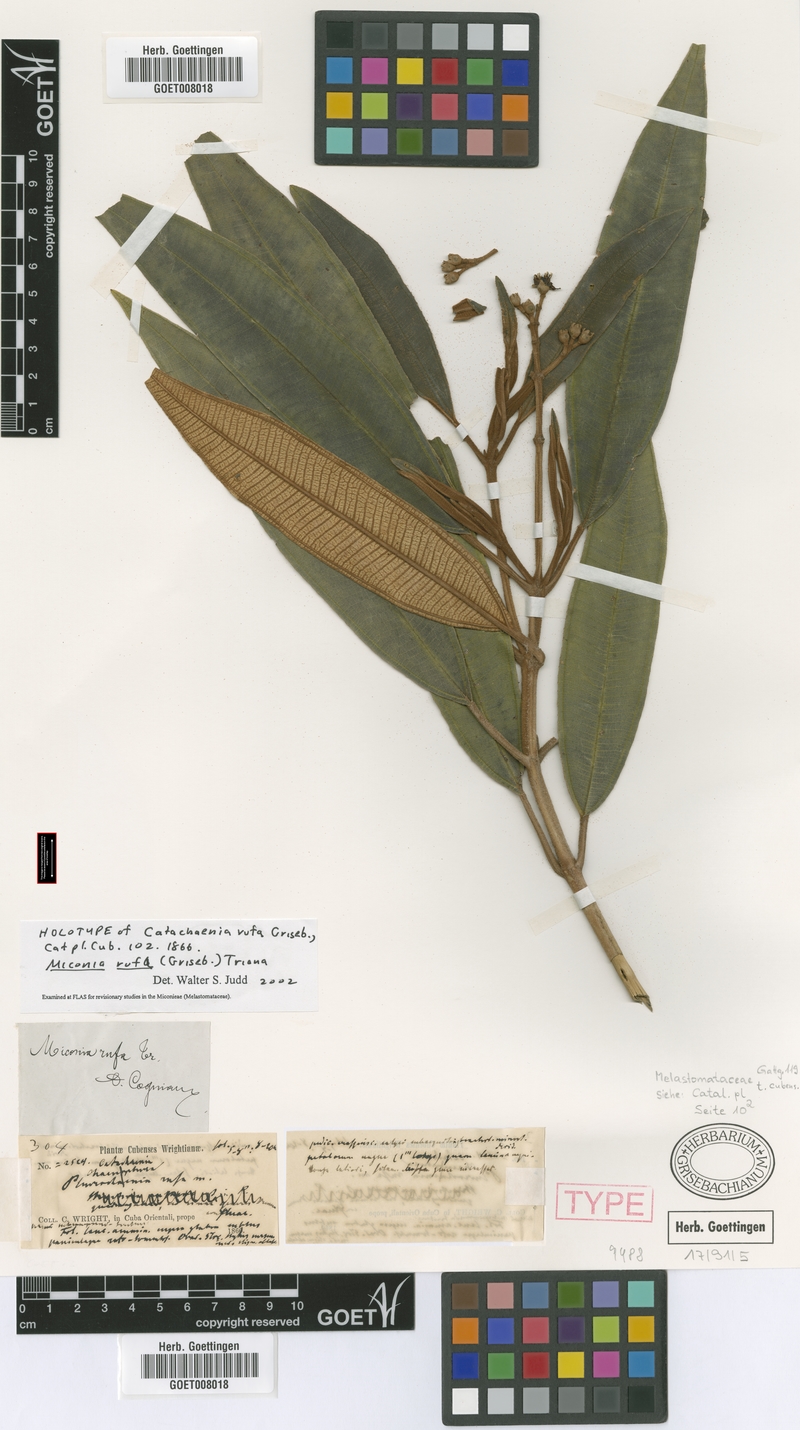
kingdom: Plantae
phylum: Tracheophyta
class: Magnoliopsida
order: Myrtales
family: Melastomataceae
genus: Miconia
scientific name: Miconia rufa
